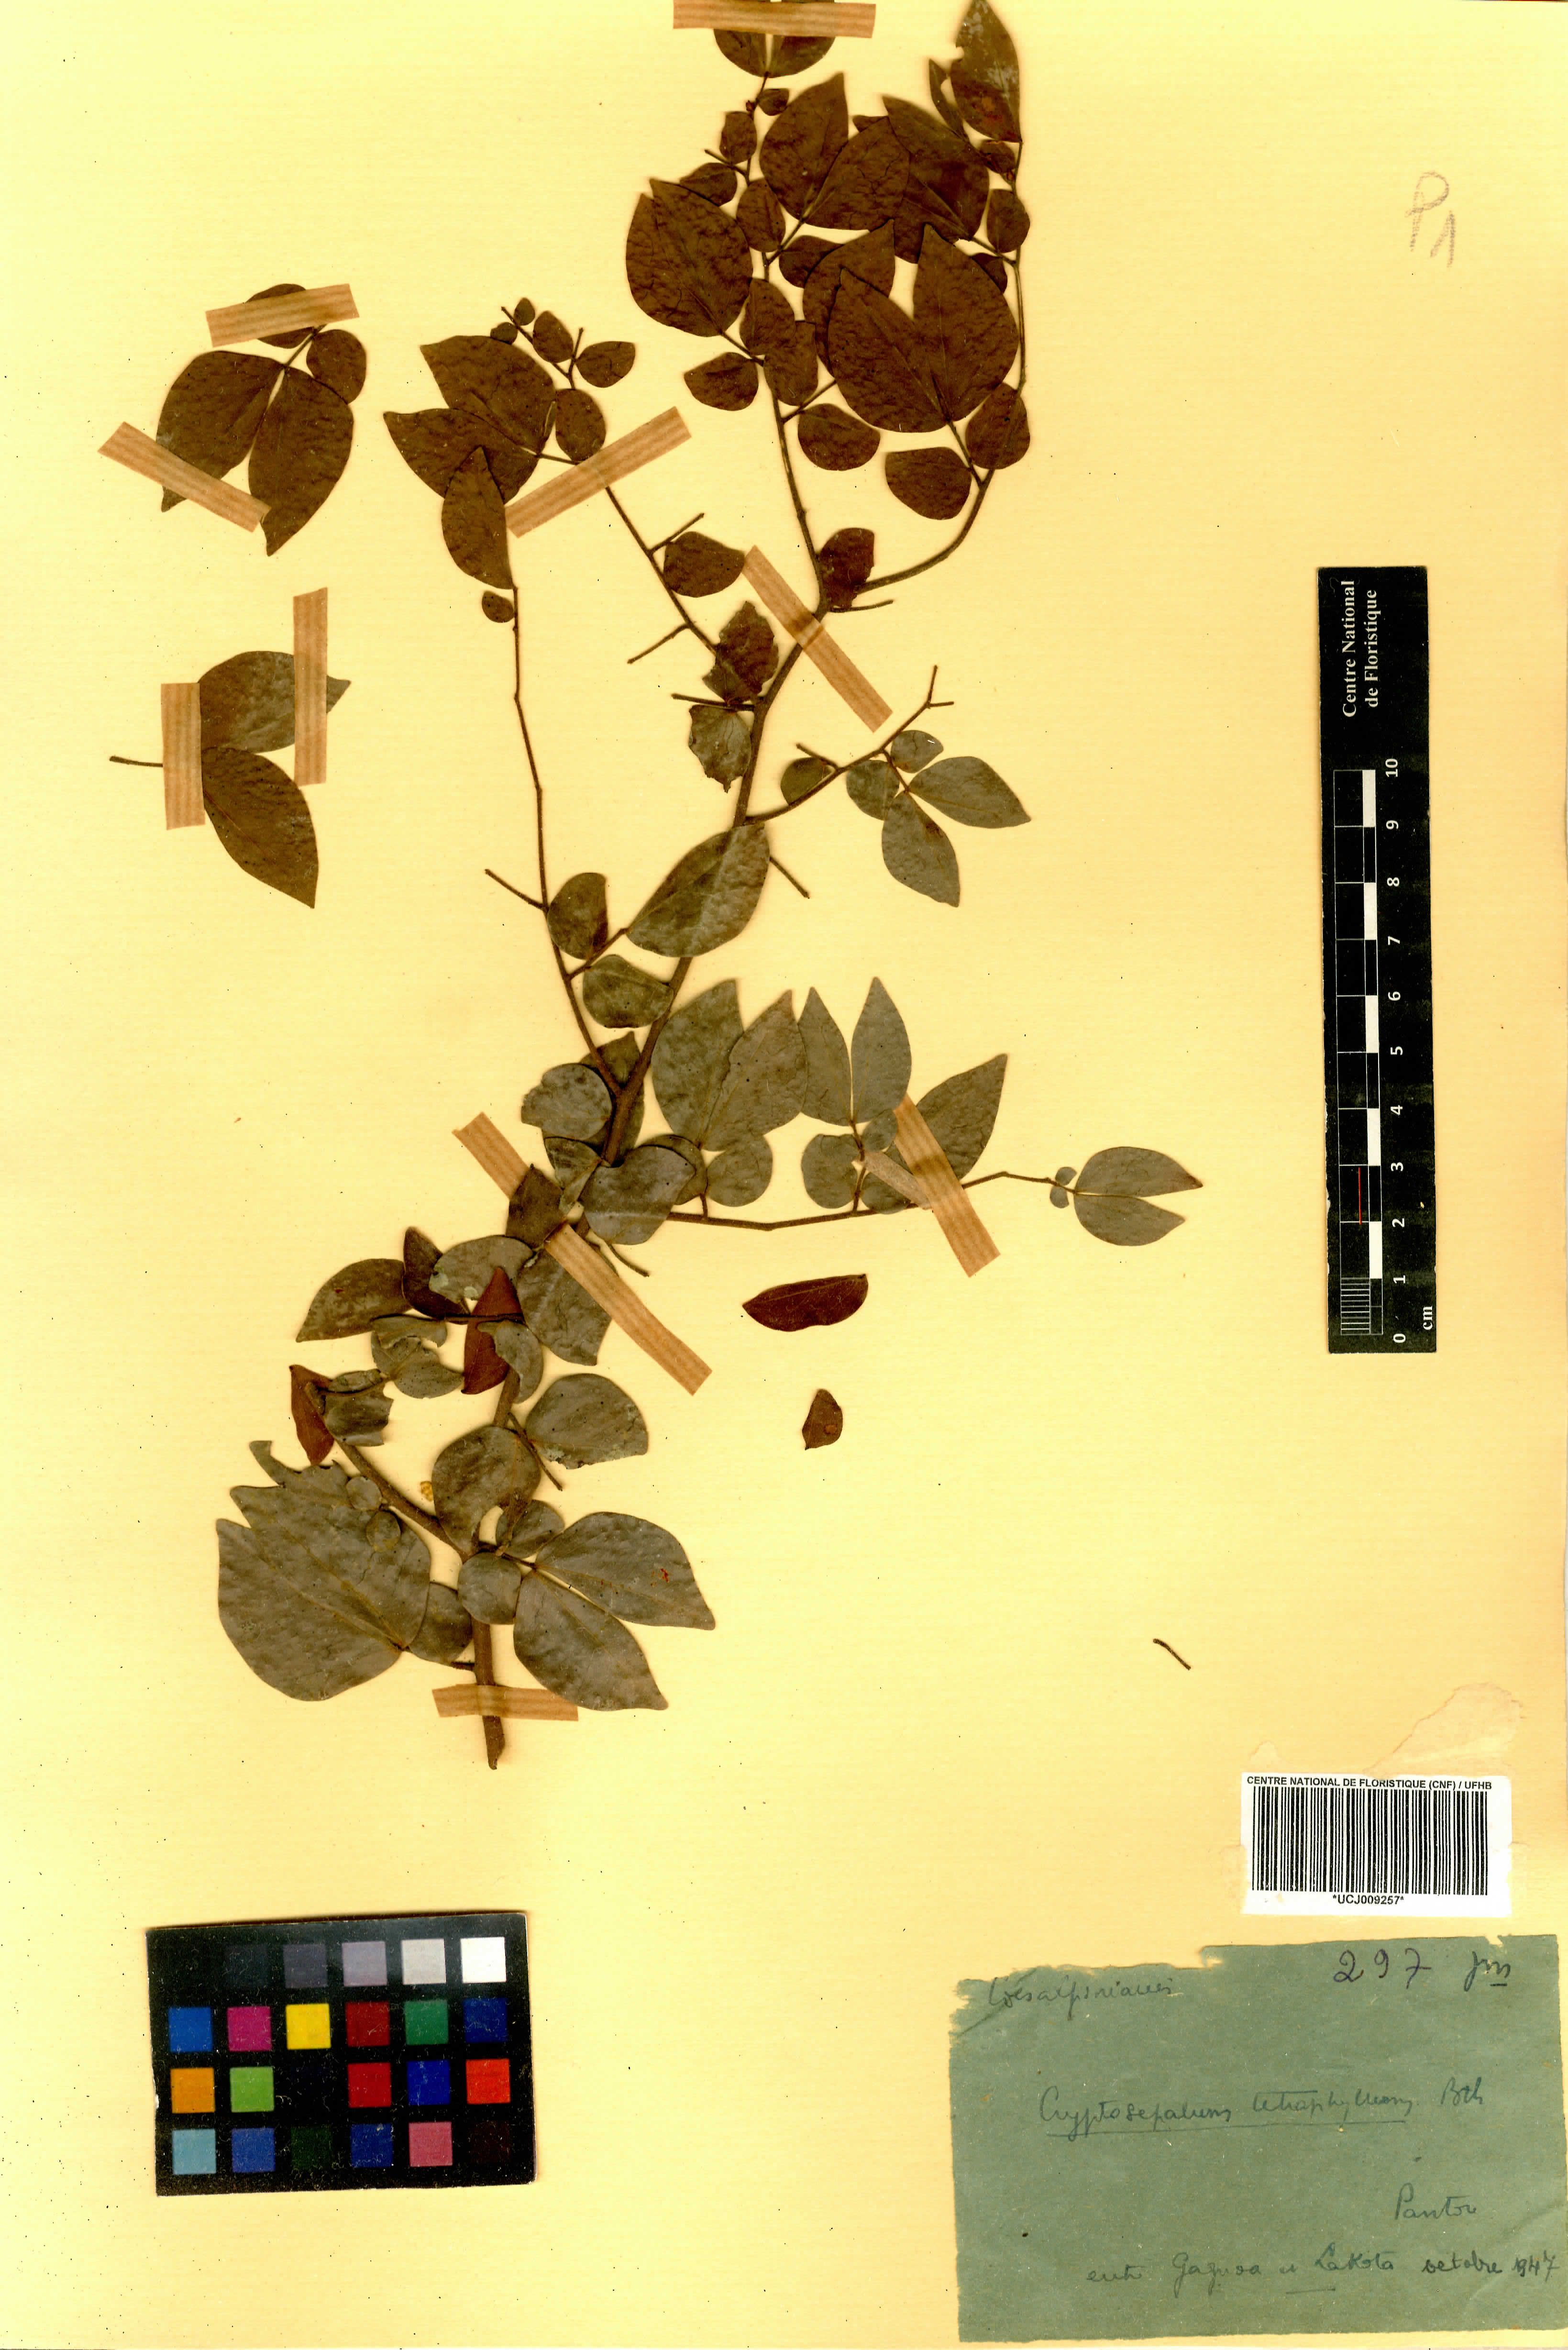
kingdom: Plantae
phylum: Tracheophyta
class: Magnoliopsida
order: Fabales
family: Fabaceae
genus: Cryptosepalum
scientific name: Cryptosepalum tetraphyllum
